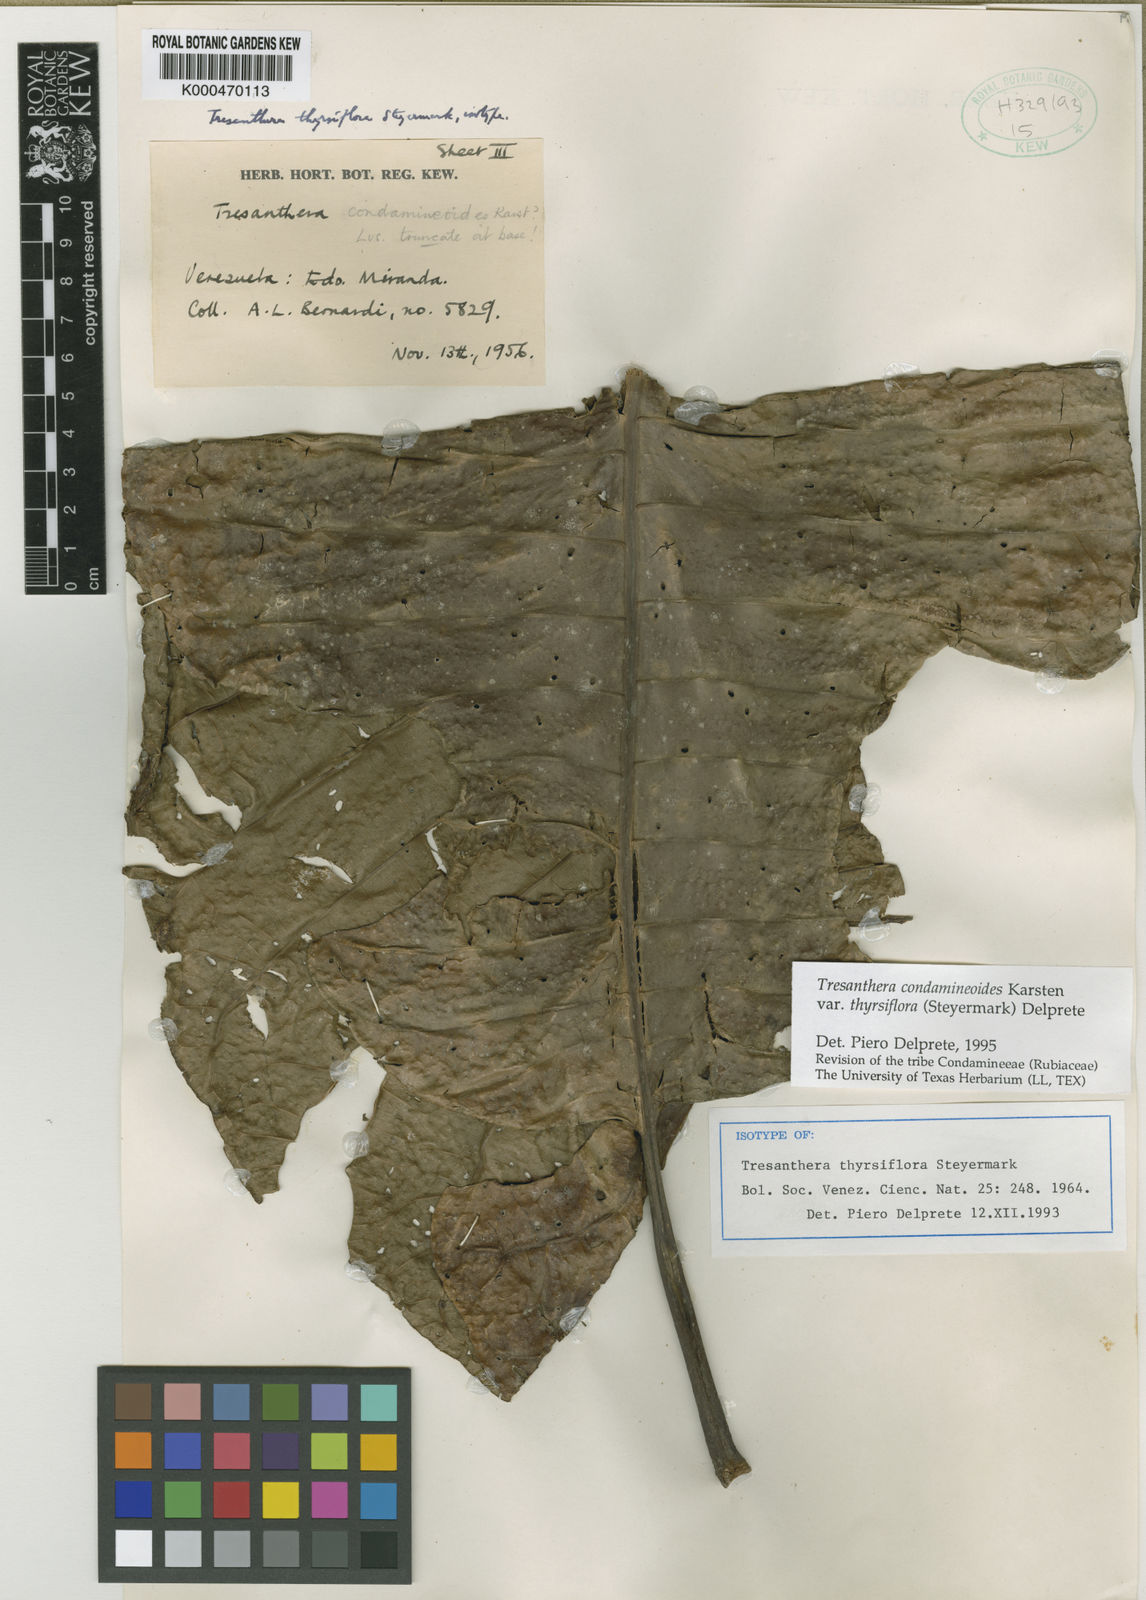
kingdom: Plantae
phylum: Tracheophyta
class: Magnoliopsida
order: Gentianales
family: Rubiaceae
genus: Rustia
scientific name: Rustia condamineoides
